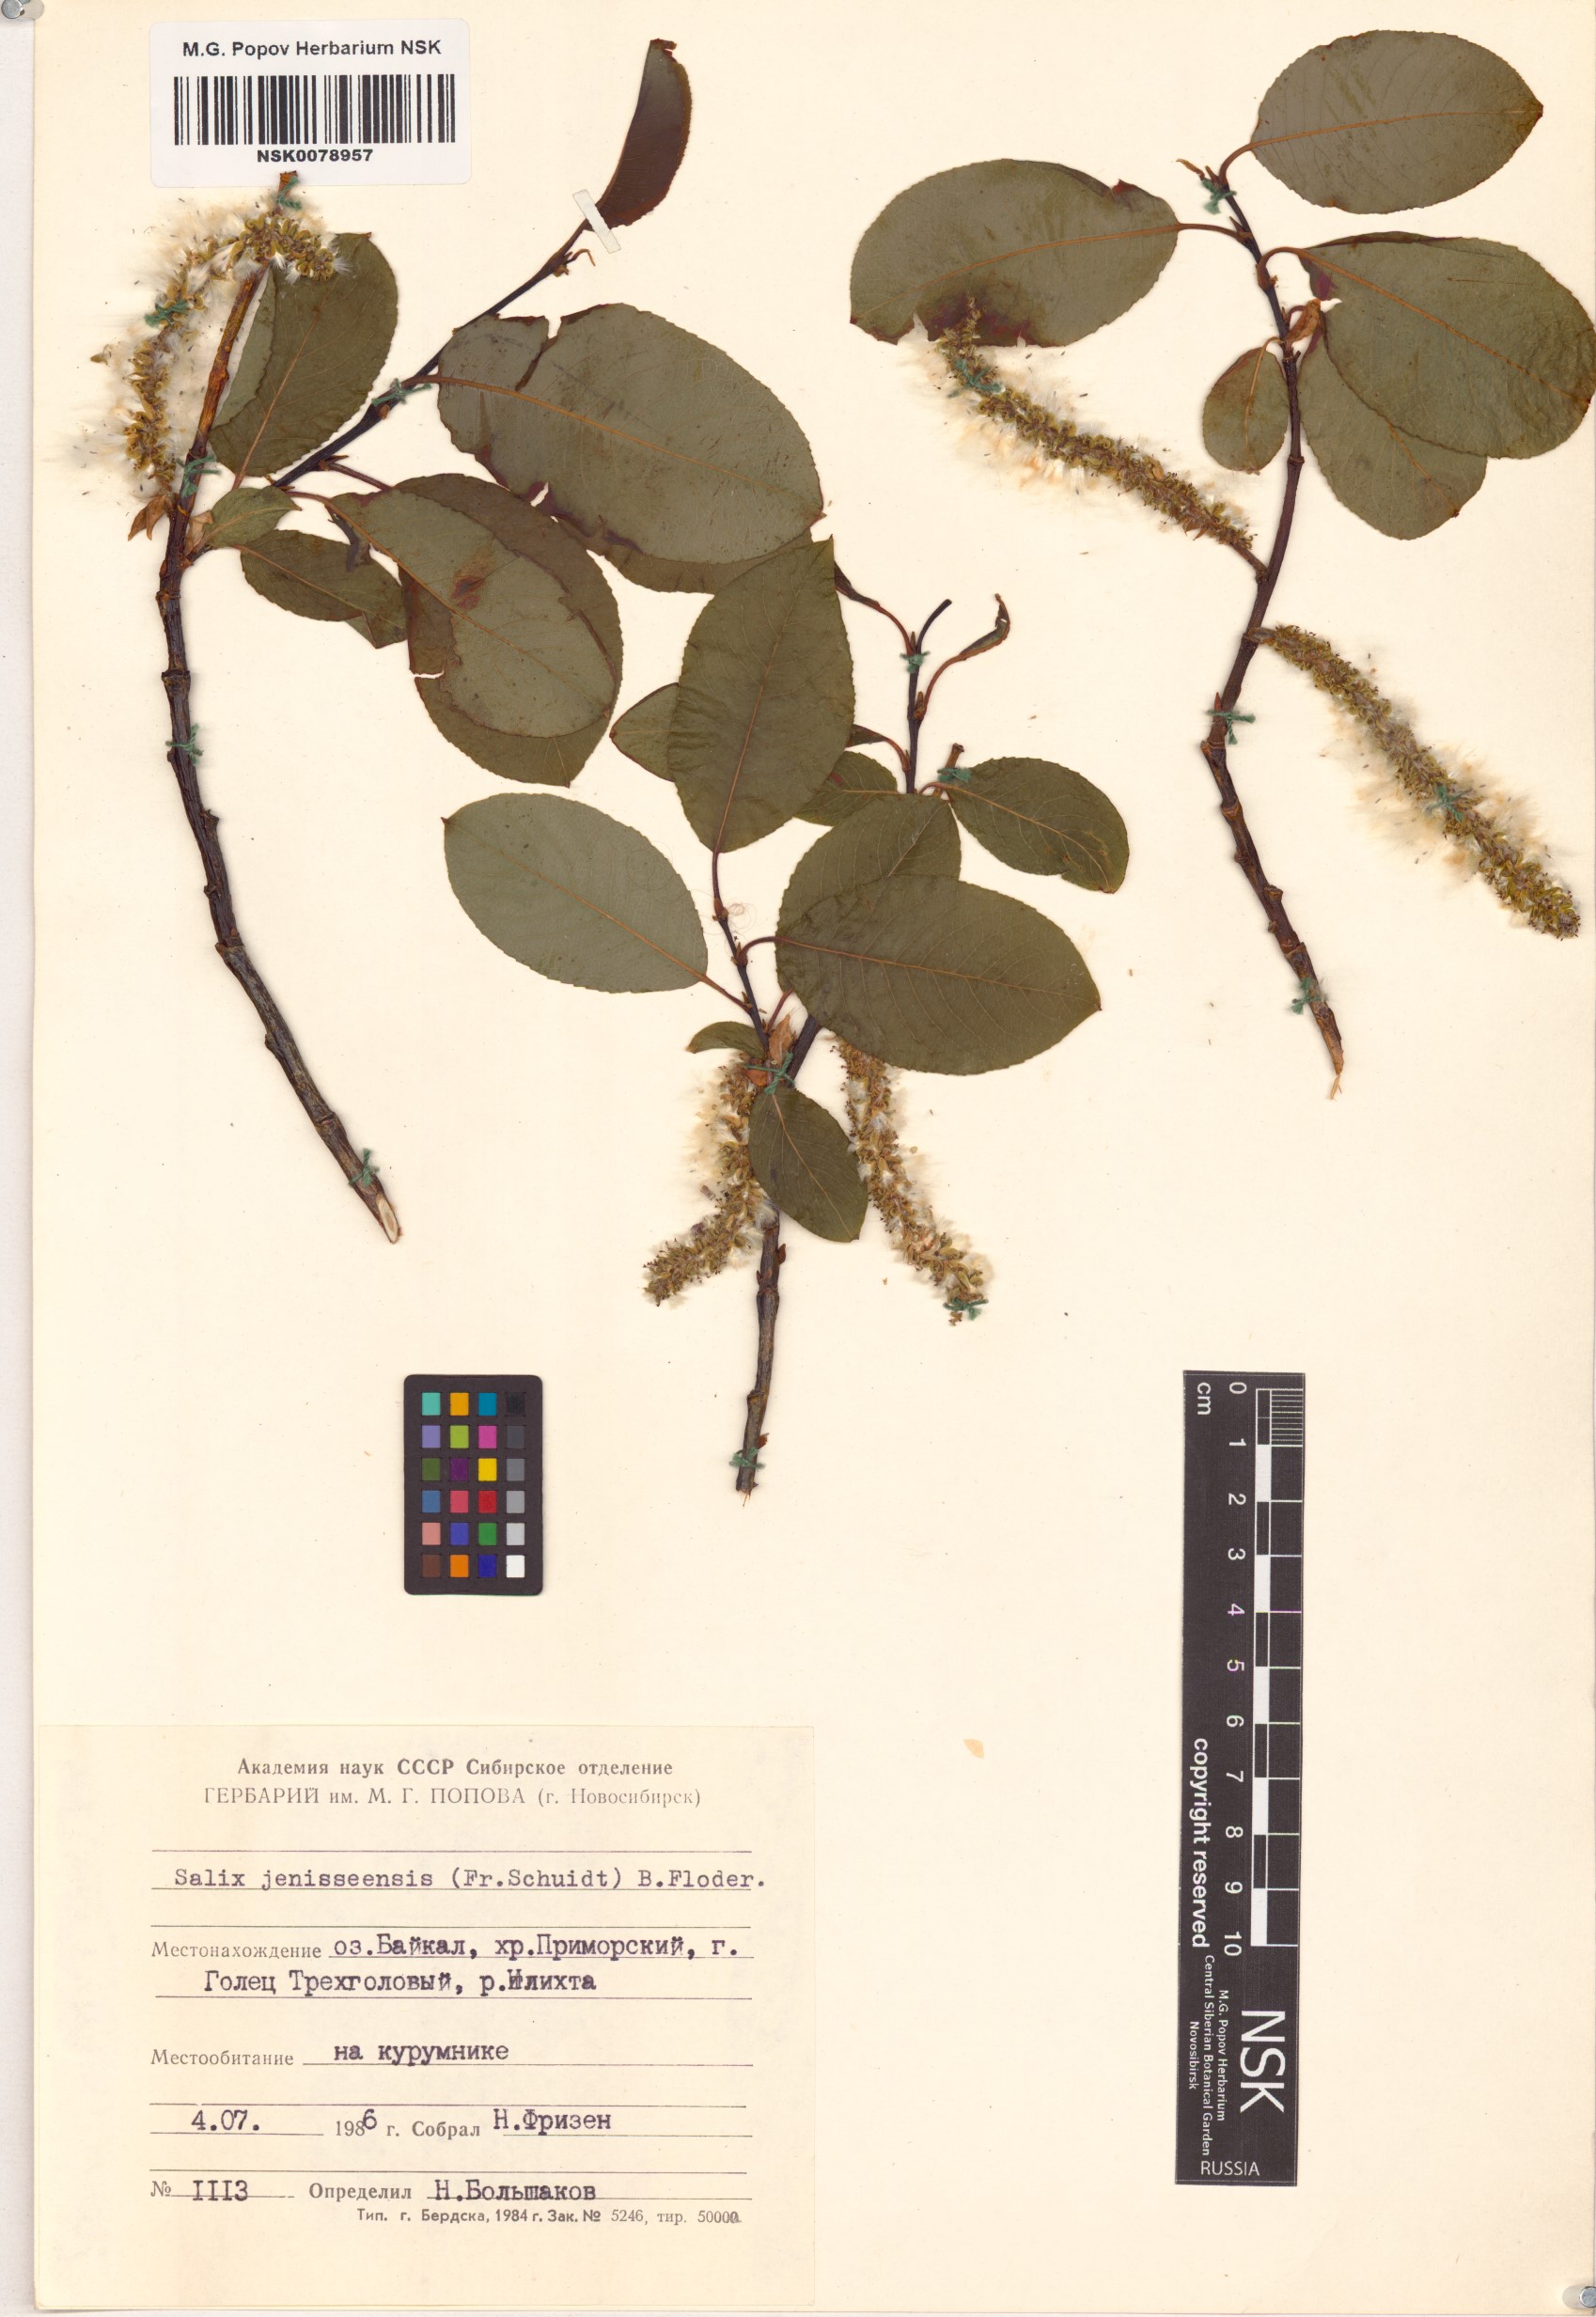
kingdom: Plantae
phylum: Tracheophyta
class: Magnoliopsida
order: Malpighiales
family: Salicaceae
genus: Salix
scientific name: Salix jenisseensis
